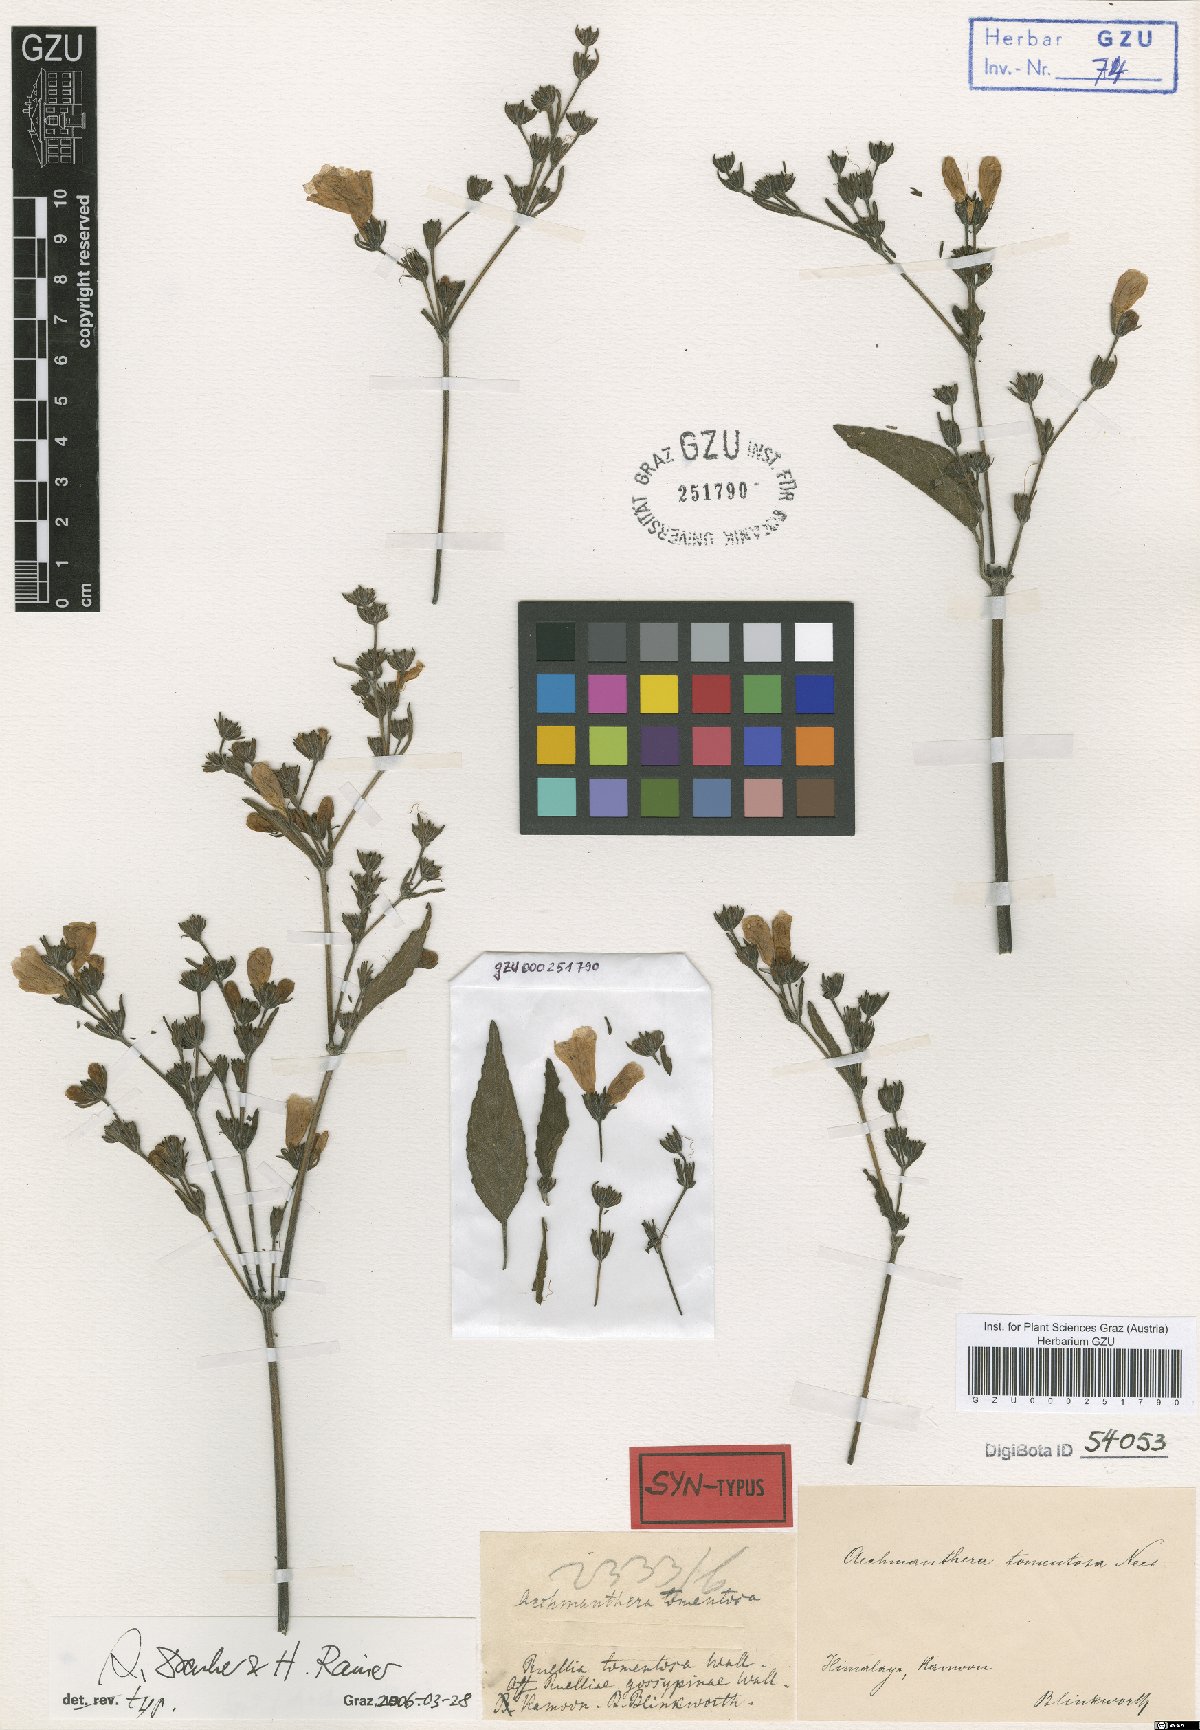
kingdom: Plantae
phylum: Tracheophyta
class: Magnoliopsida
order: Lamiales
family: Acanthaceae
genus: Strobilanthes
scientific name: Strobilanthes tomentosa
